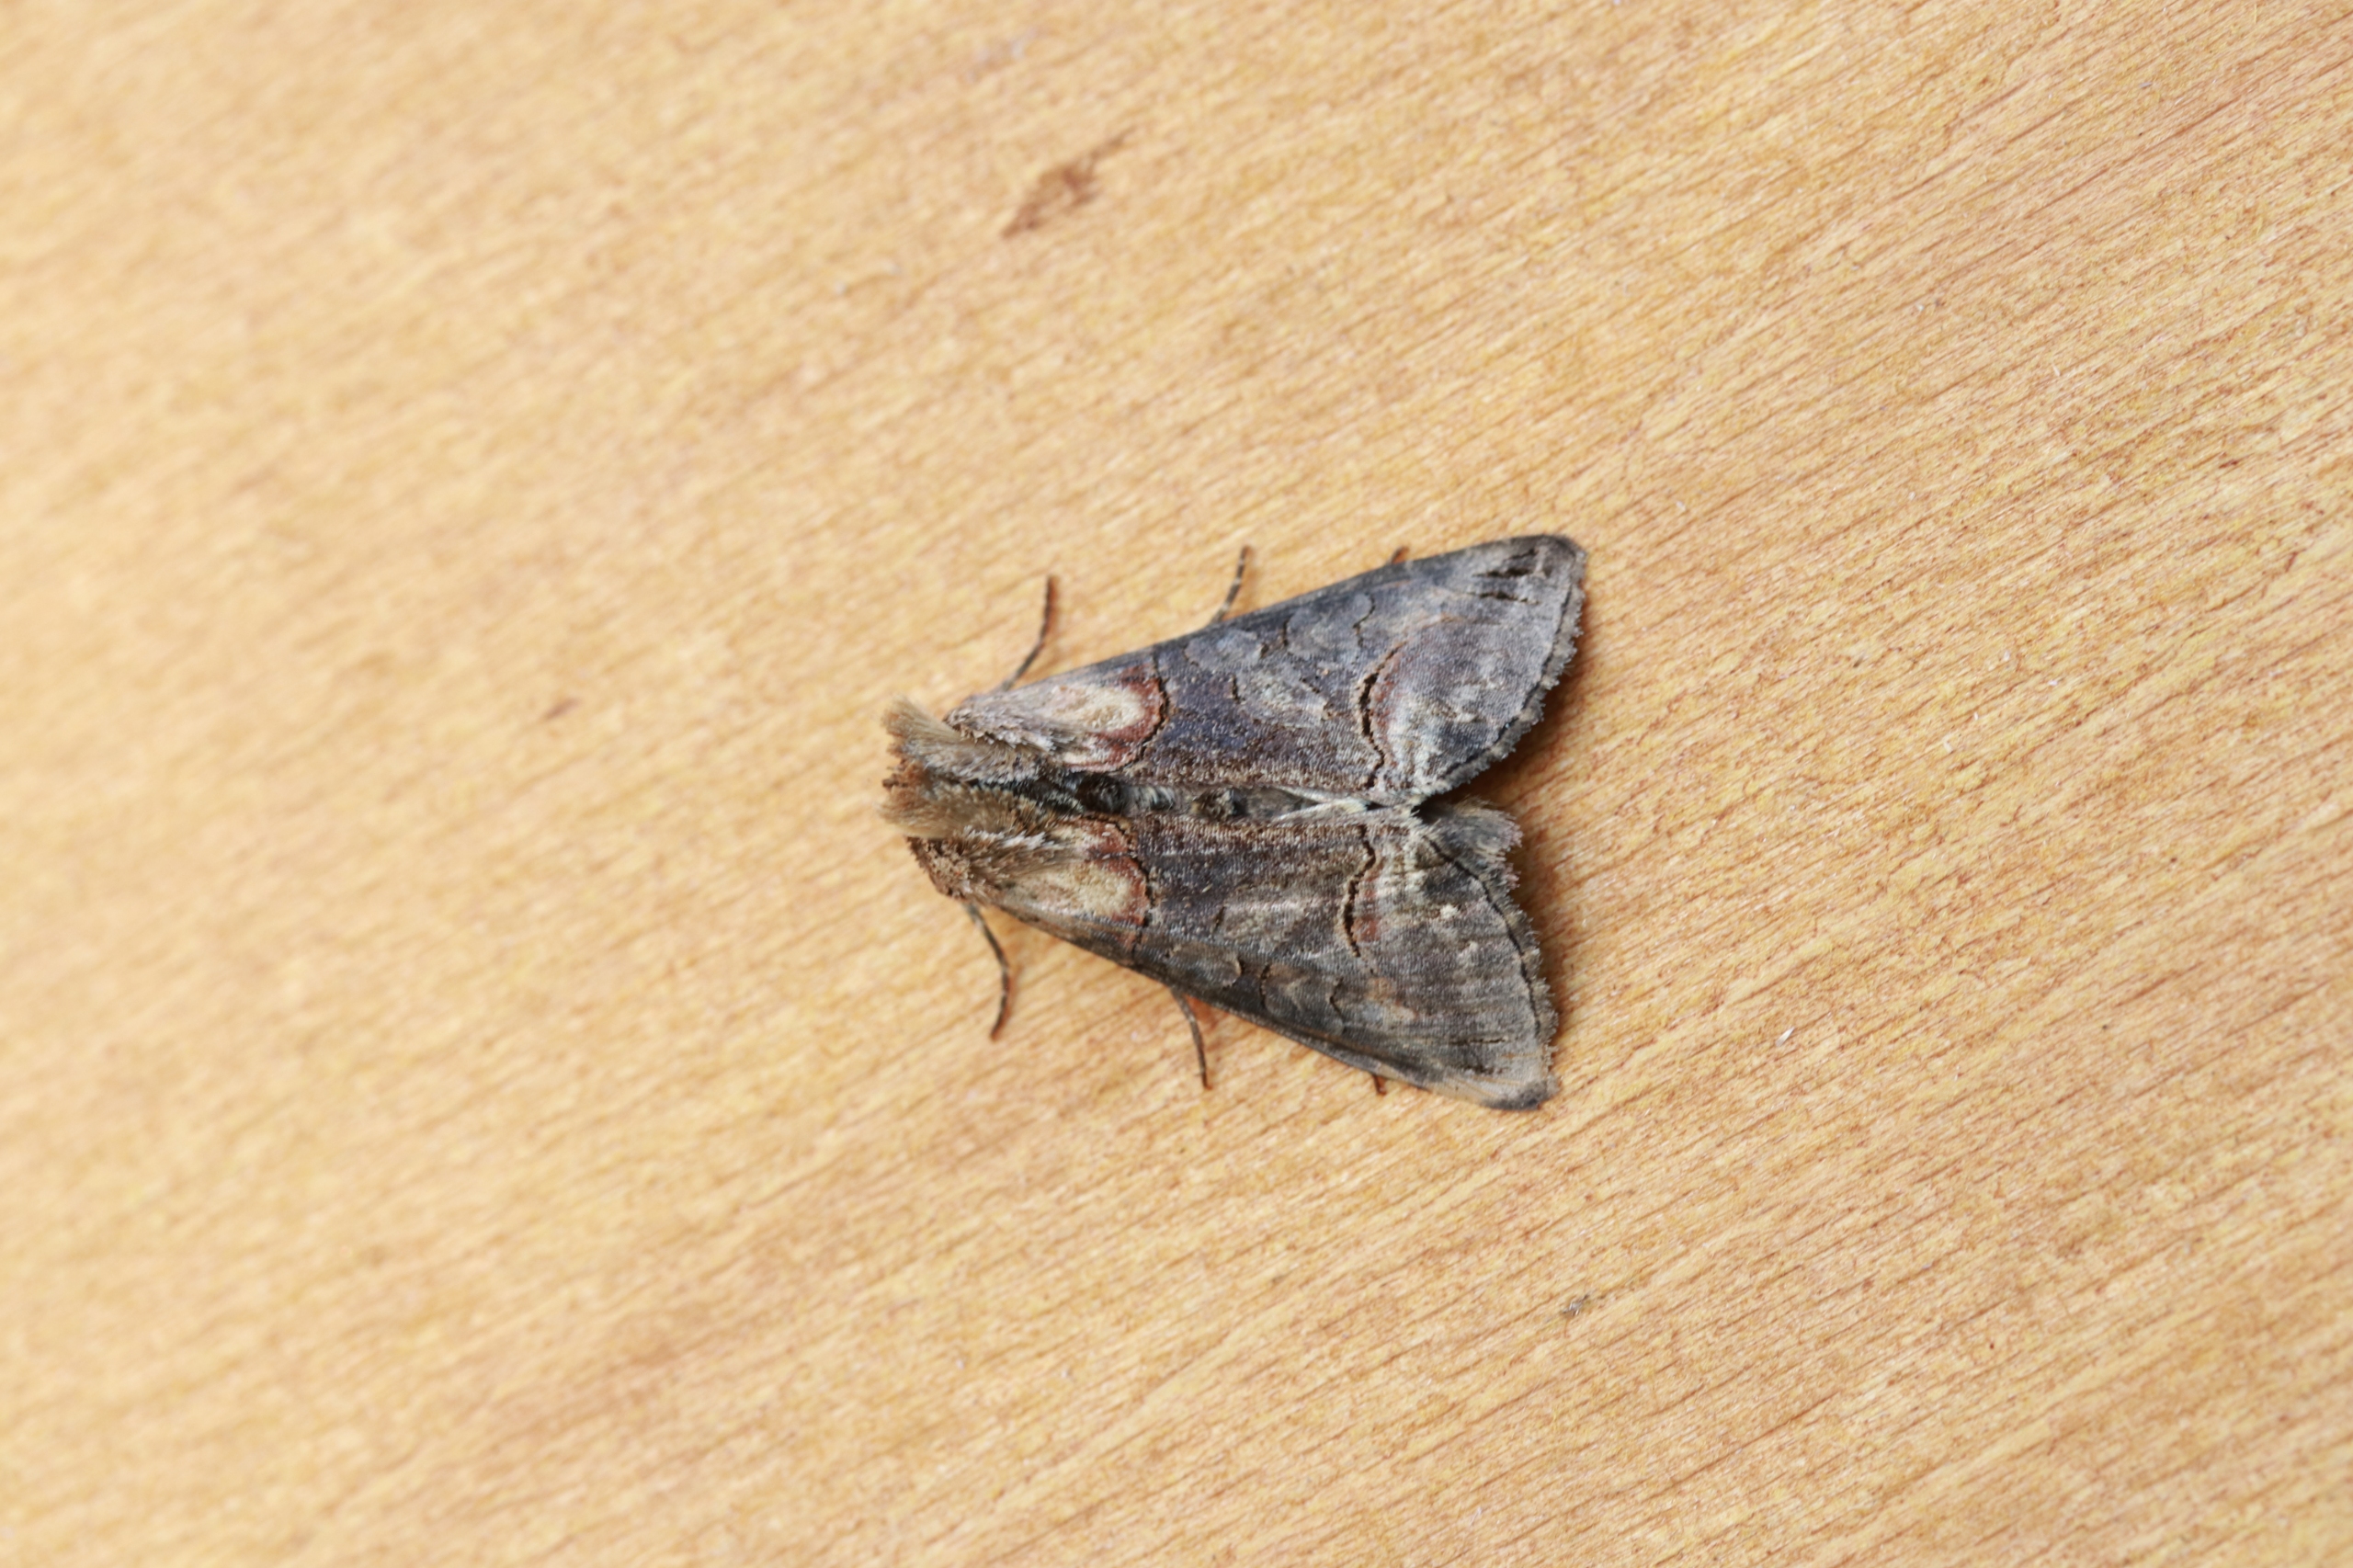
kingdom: Animalia
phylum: Arthropoda
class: Insecta
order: Lepidoptera
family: Noctuidae
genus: Abrostola
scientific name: Abrostola triplasia
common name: Brun nælde-brilleugle
